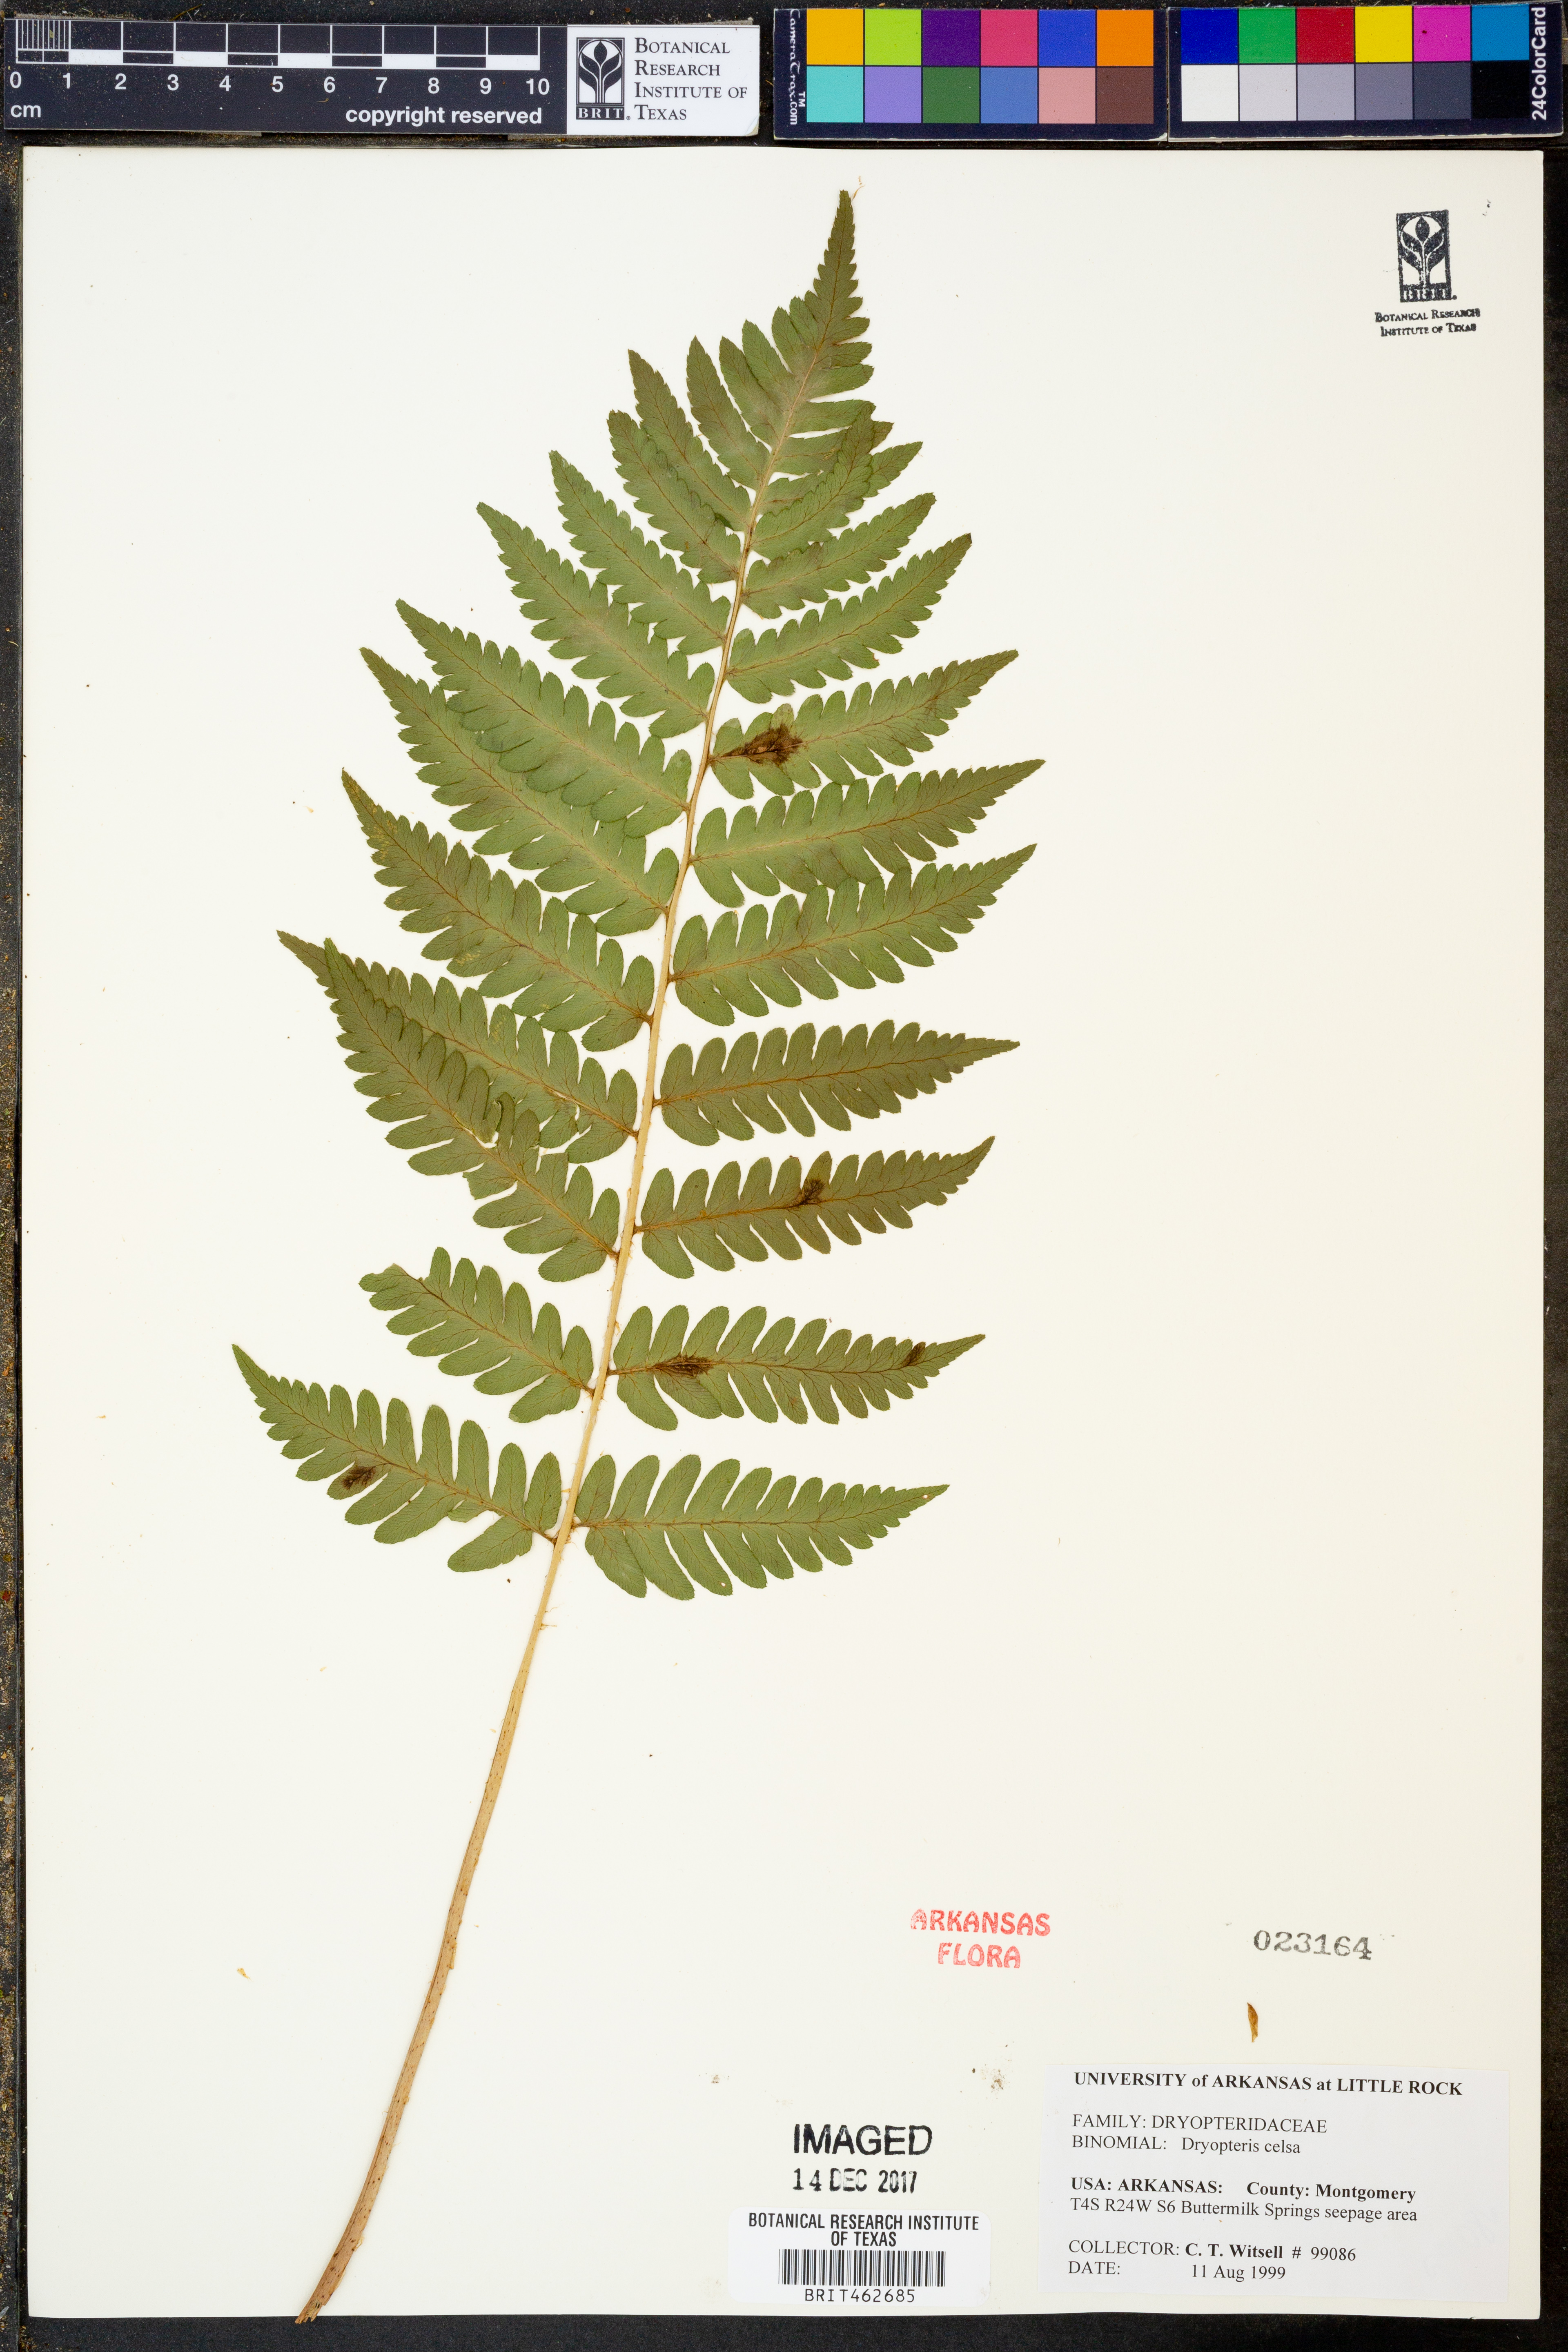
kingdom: Plantae
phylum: Tracheophyta
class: Polypodiopsida
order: Polypodiales
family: Dryopteridaceae
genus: Dryopteris
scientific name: Dryopteris celsa
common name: Log fern
